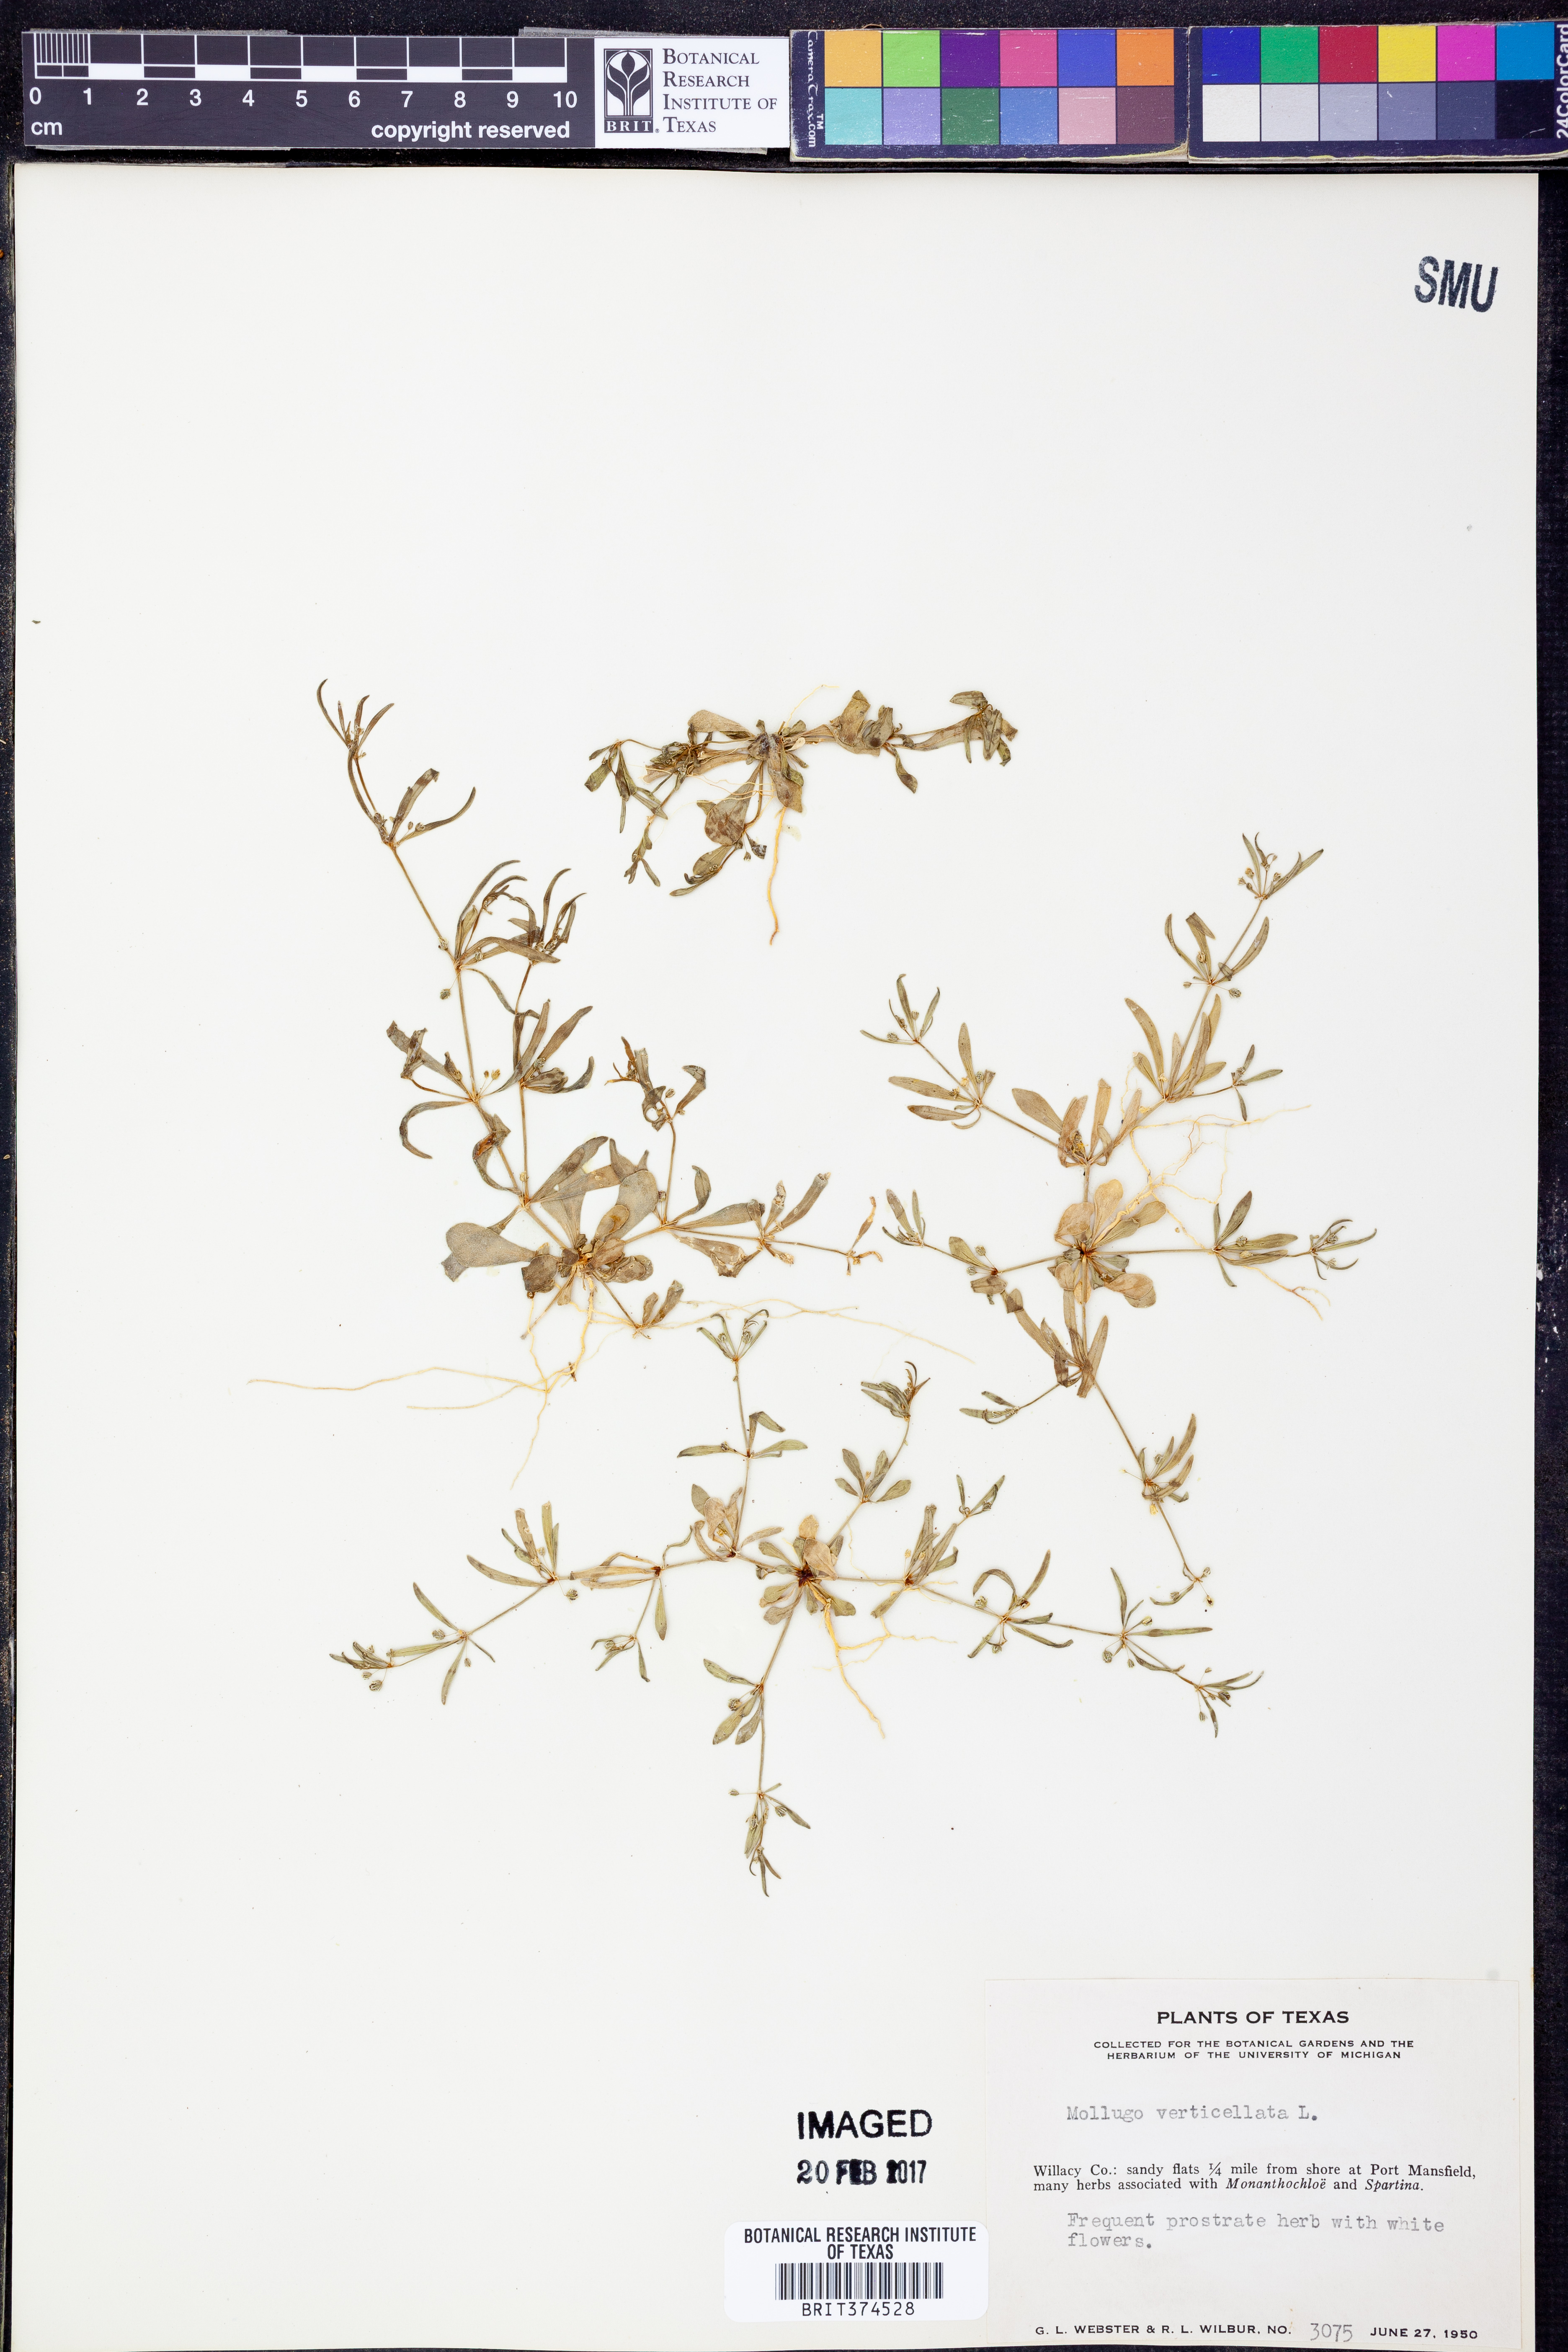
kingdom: Plantae
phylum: Tracheophyta
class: Magnoliopsida
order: Caryophyllales
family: Molluginaceae
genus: Mollugo
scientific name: Mollugo verticillata
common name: Green carpetweed
